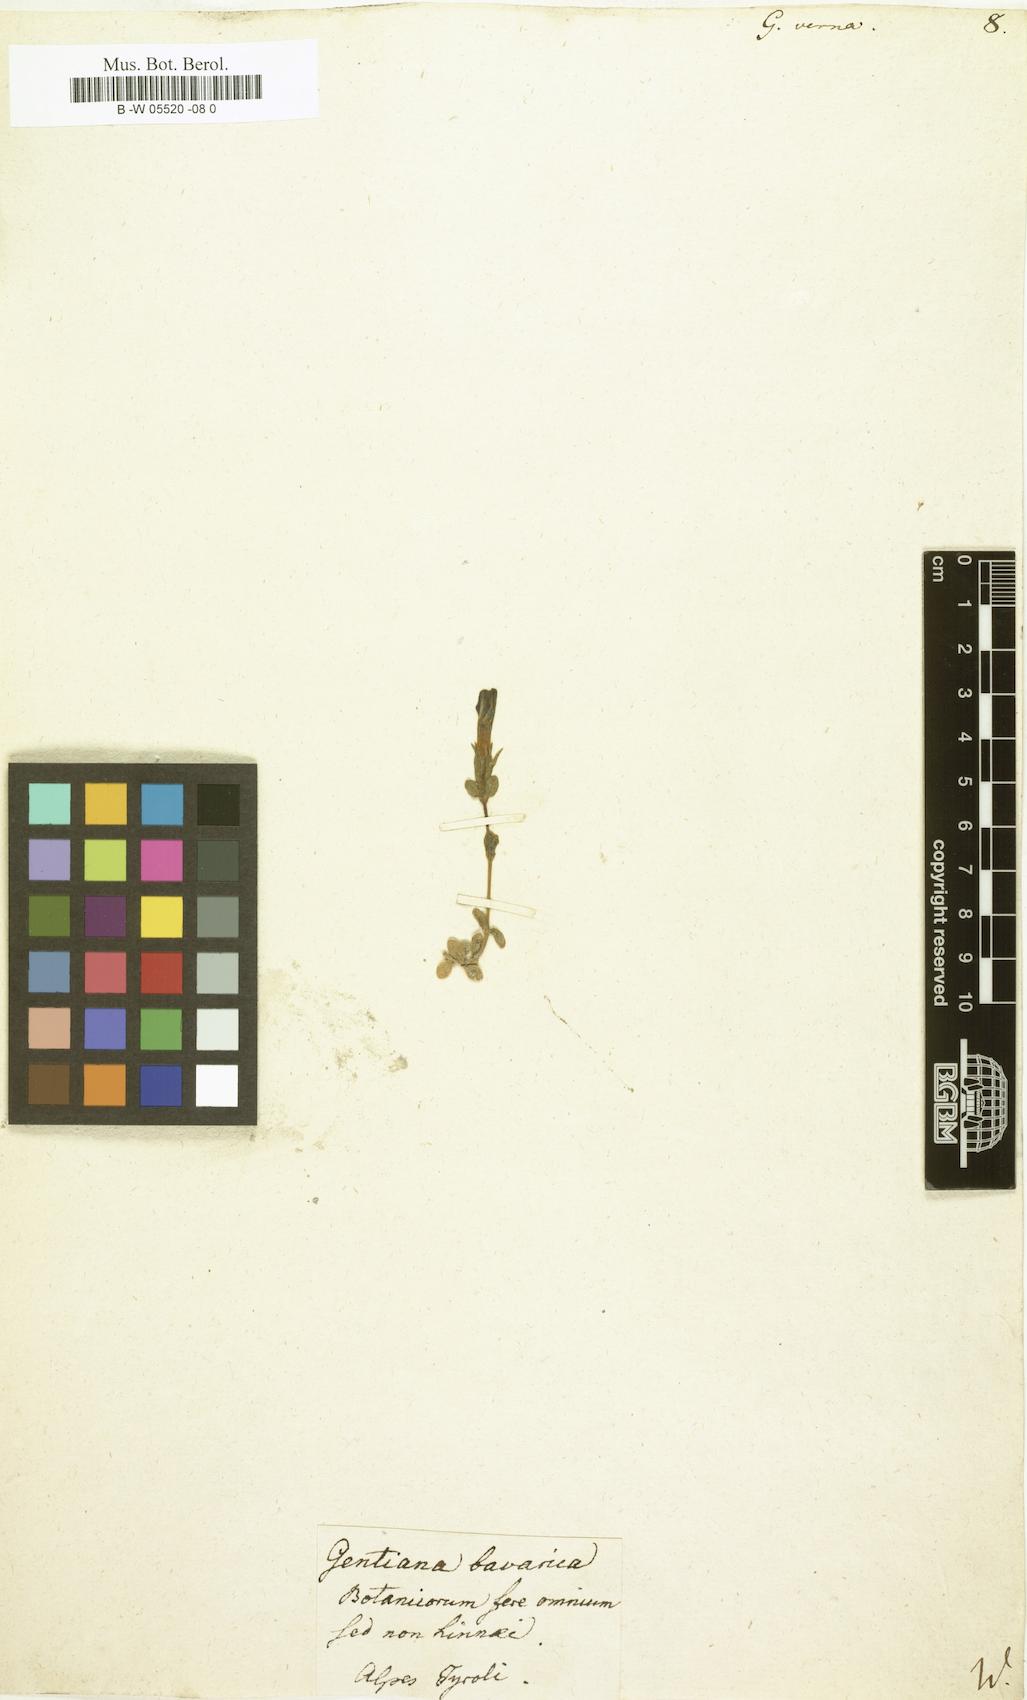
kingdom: Plantae
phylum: Tracheophyta
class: Magnoliopsida
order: Gentianales
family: Gentianaceae
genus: Gentiana
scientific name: Gentiana verna
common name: Spring gentian
